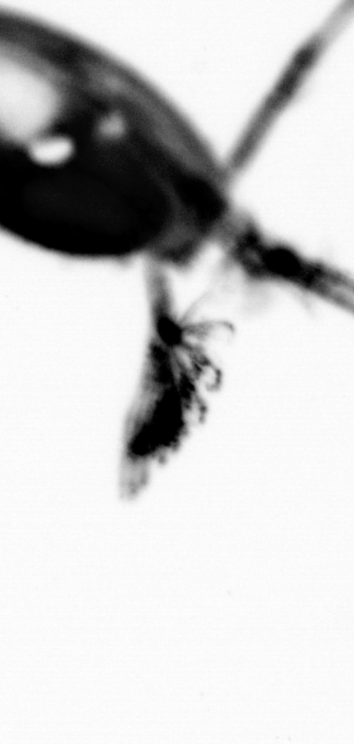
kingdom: Animalia
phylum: Arthropoda
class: Copepoda
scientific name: Copepoda
